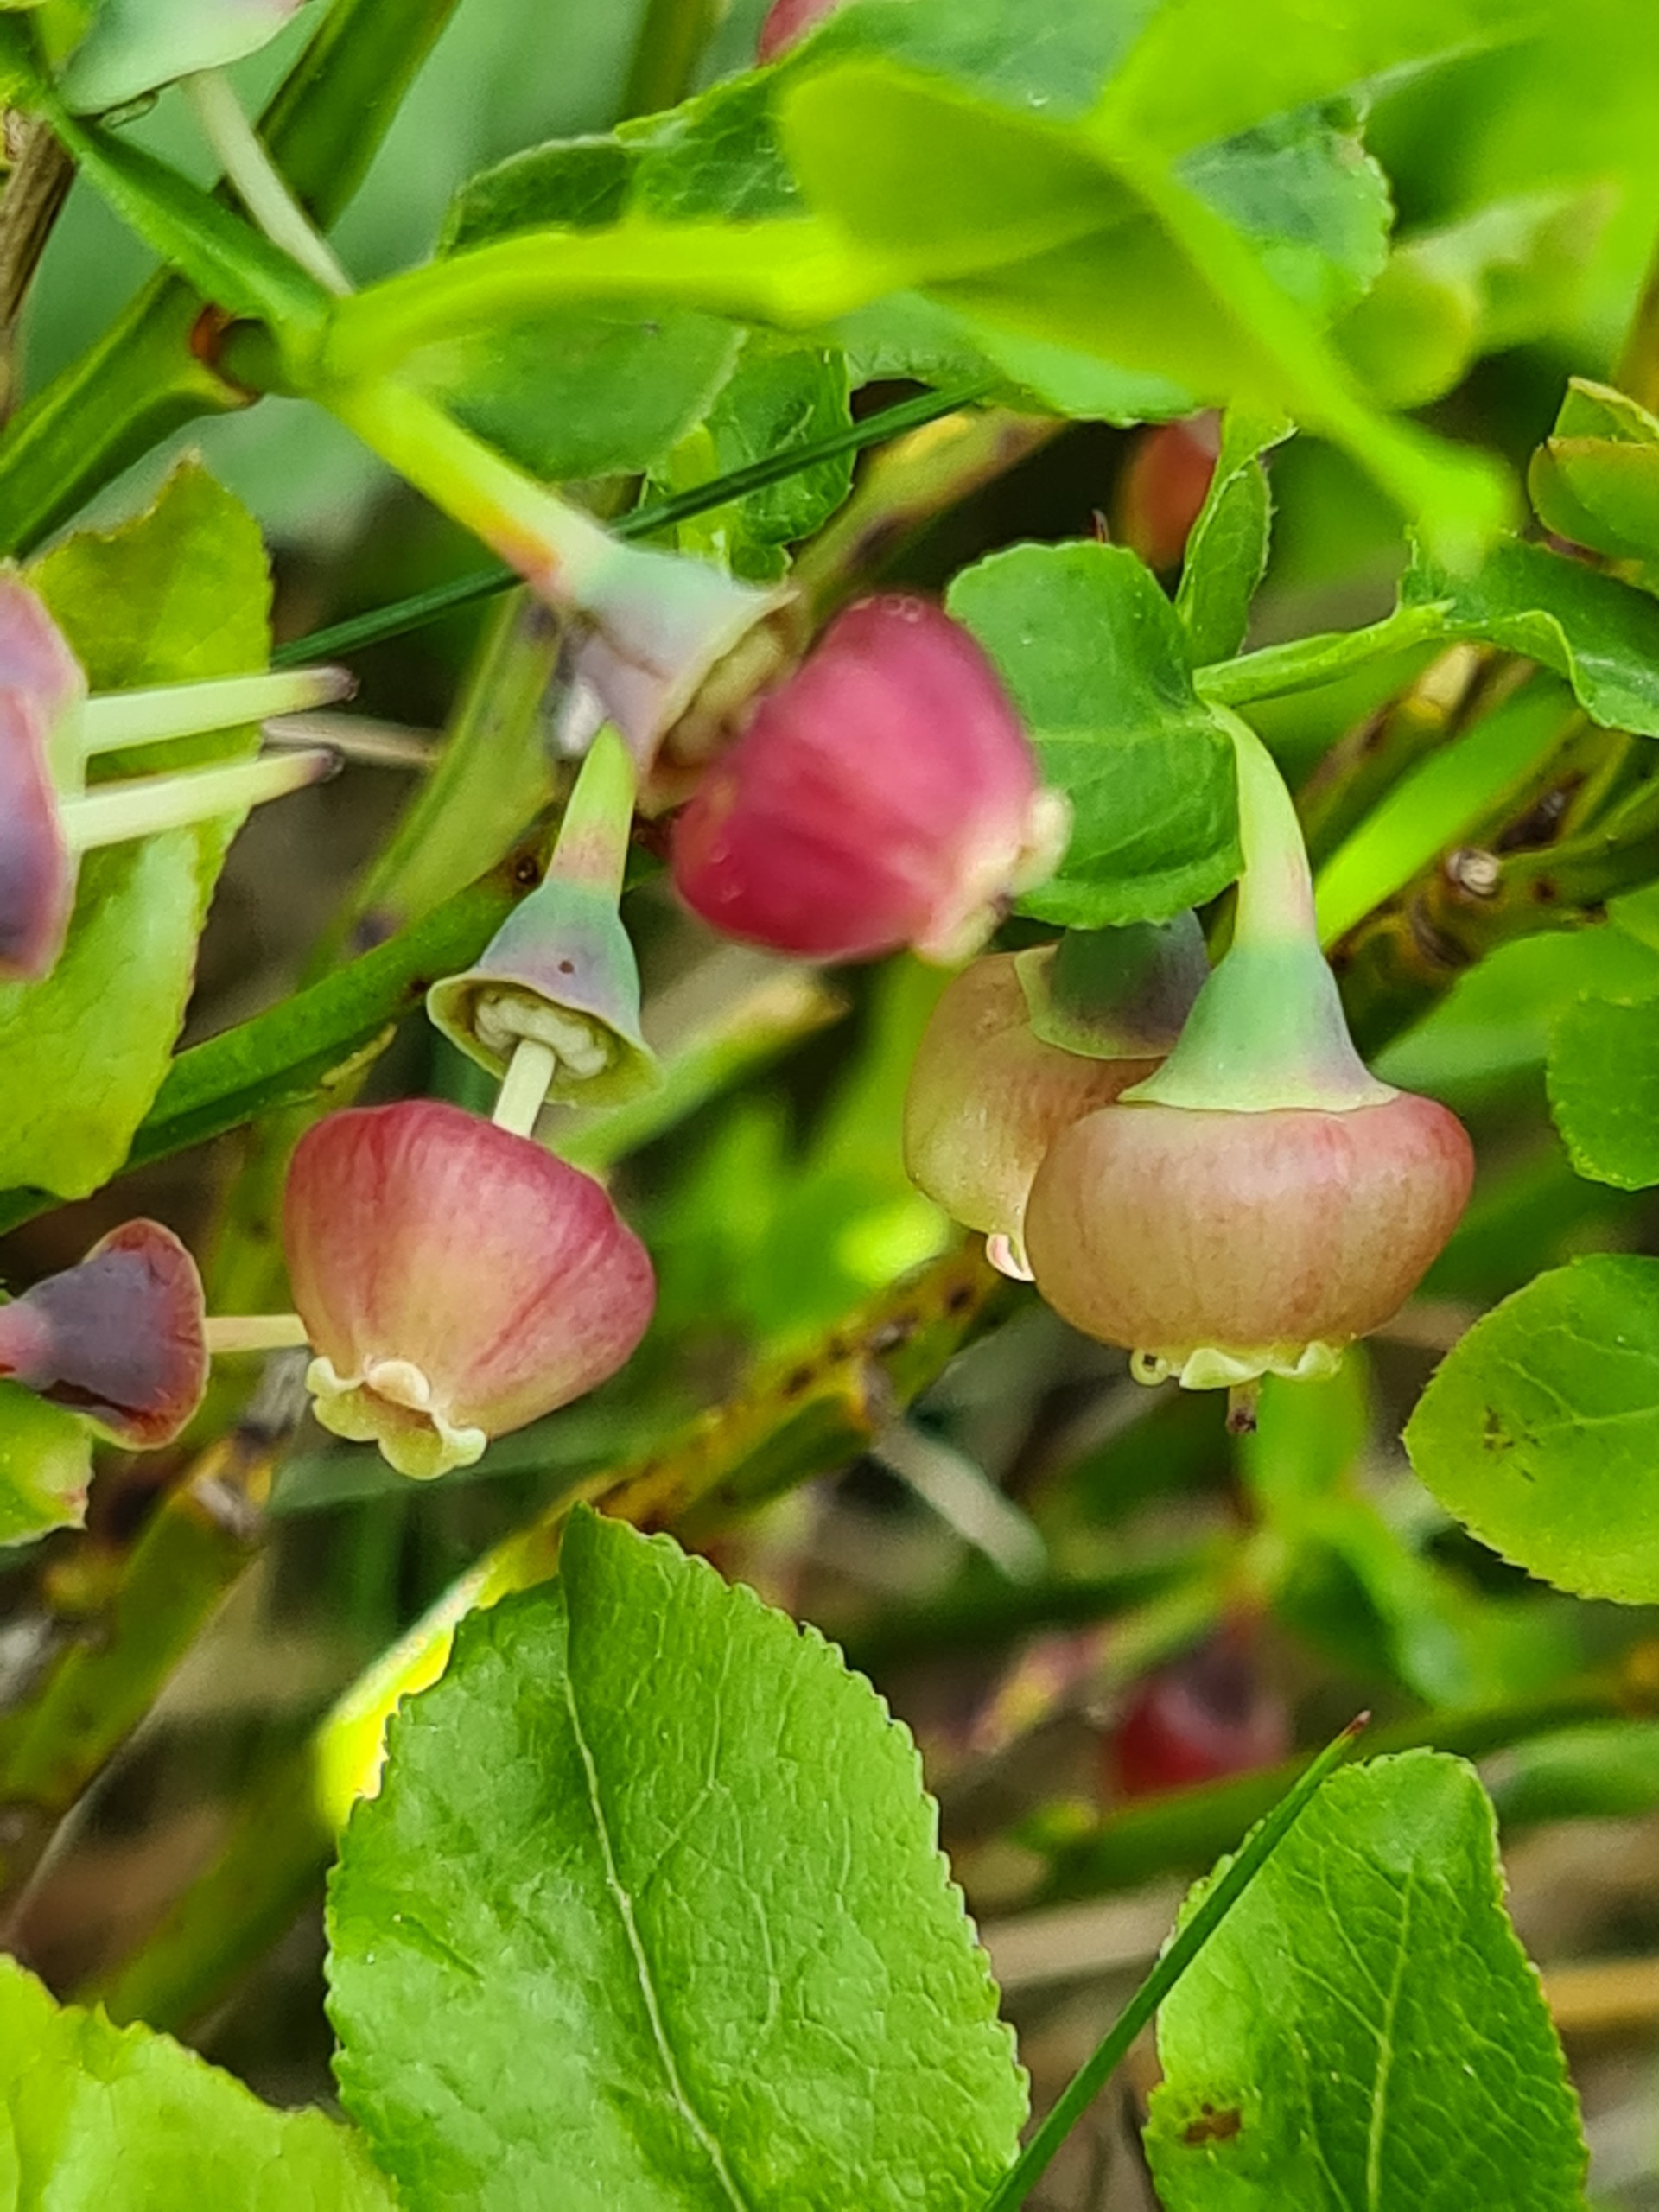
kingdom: Plantae
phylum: Tracheophyta
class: Magnoliopsida
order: Ericales
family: Ericaceae
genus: Vaccinium
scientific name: Vaccinium myrtillus
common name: Blåbær
